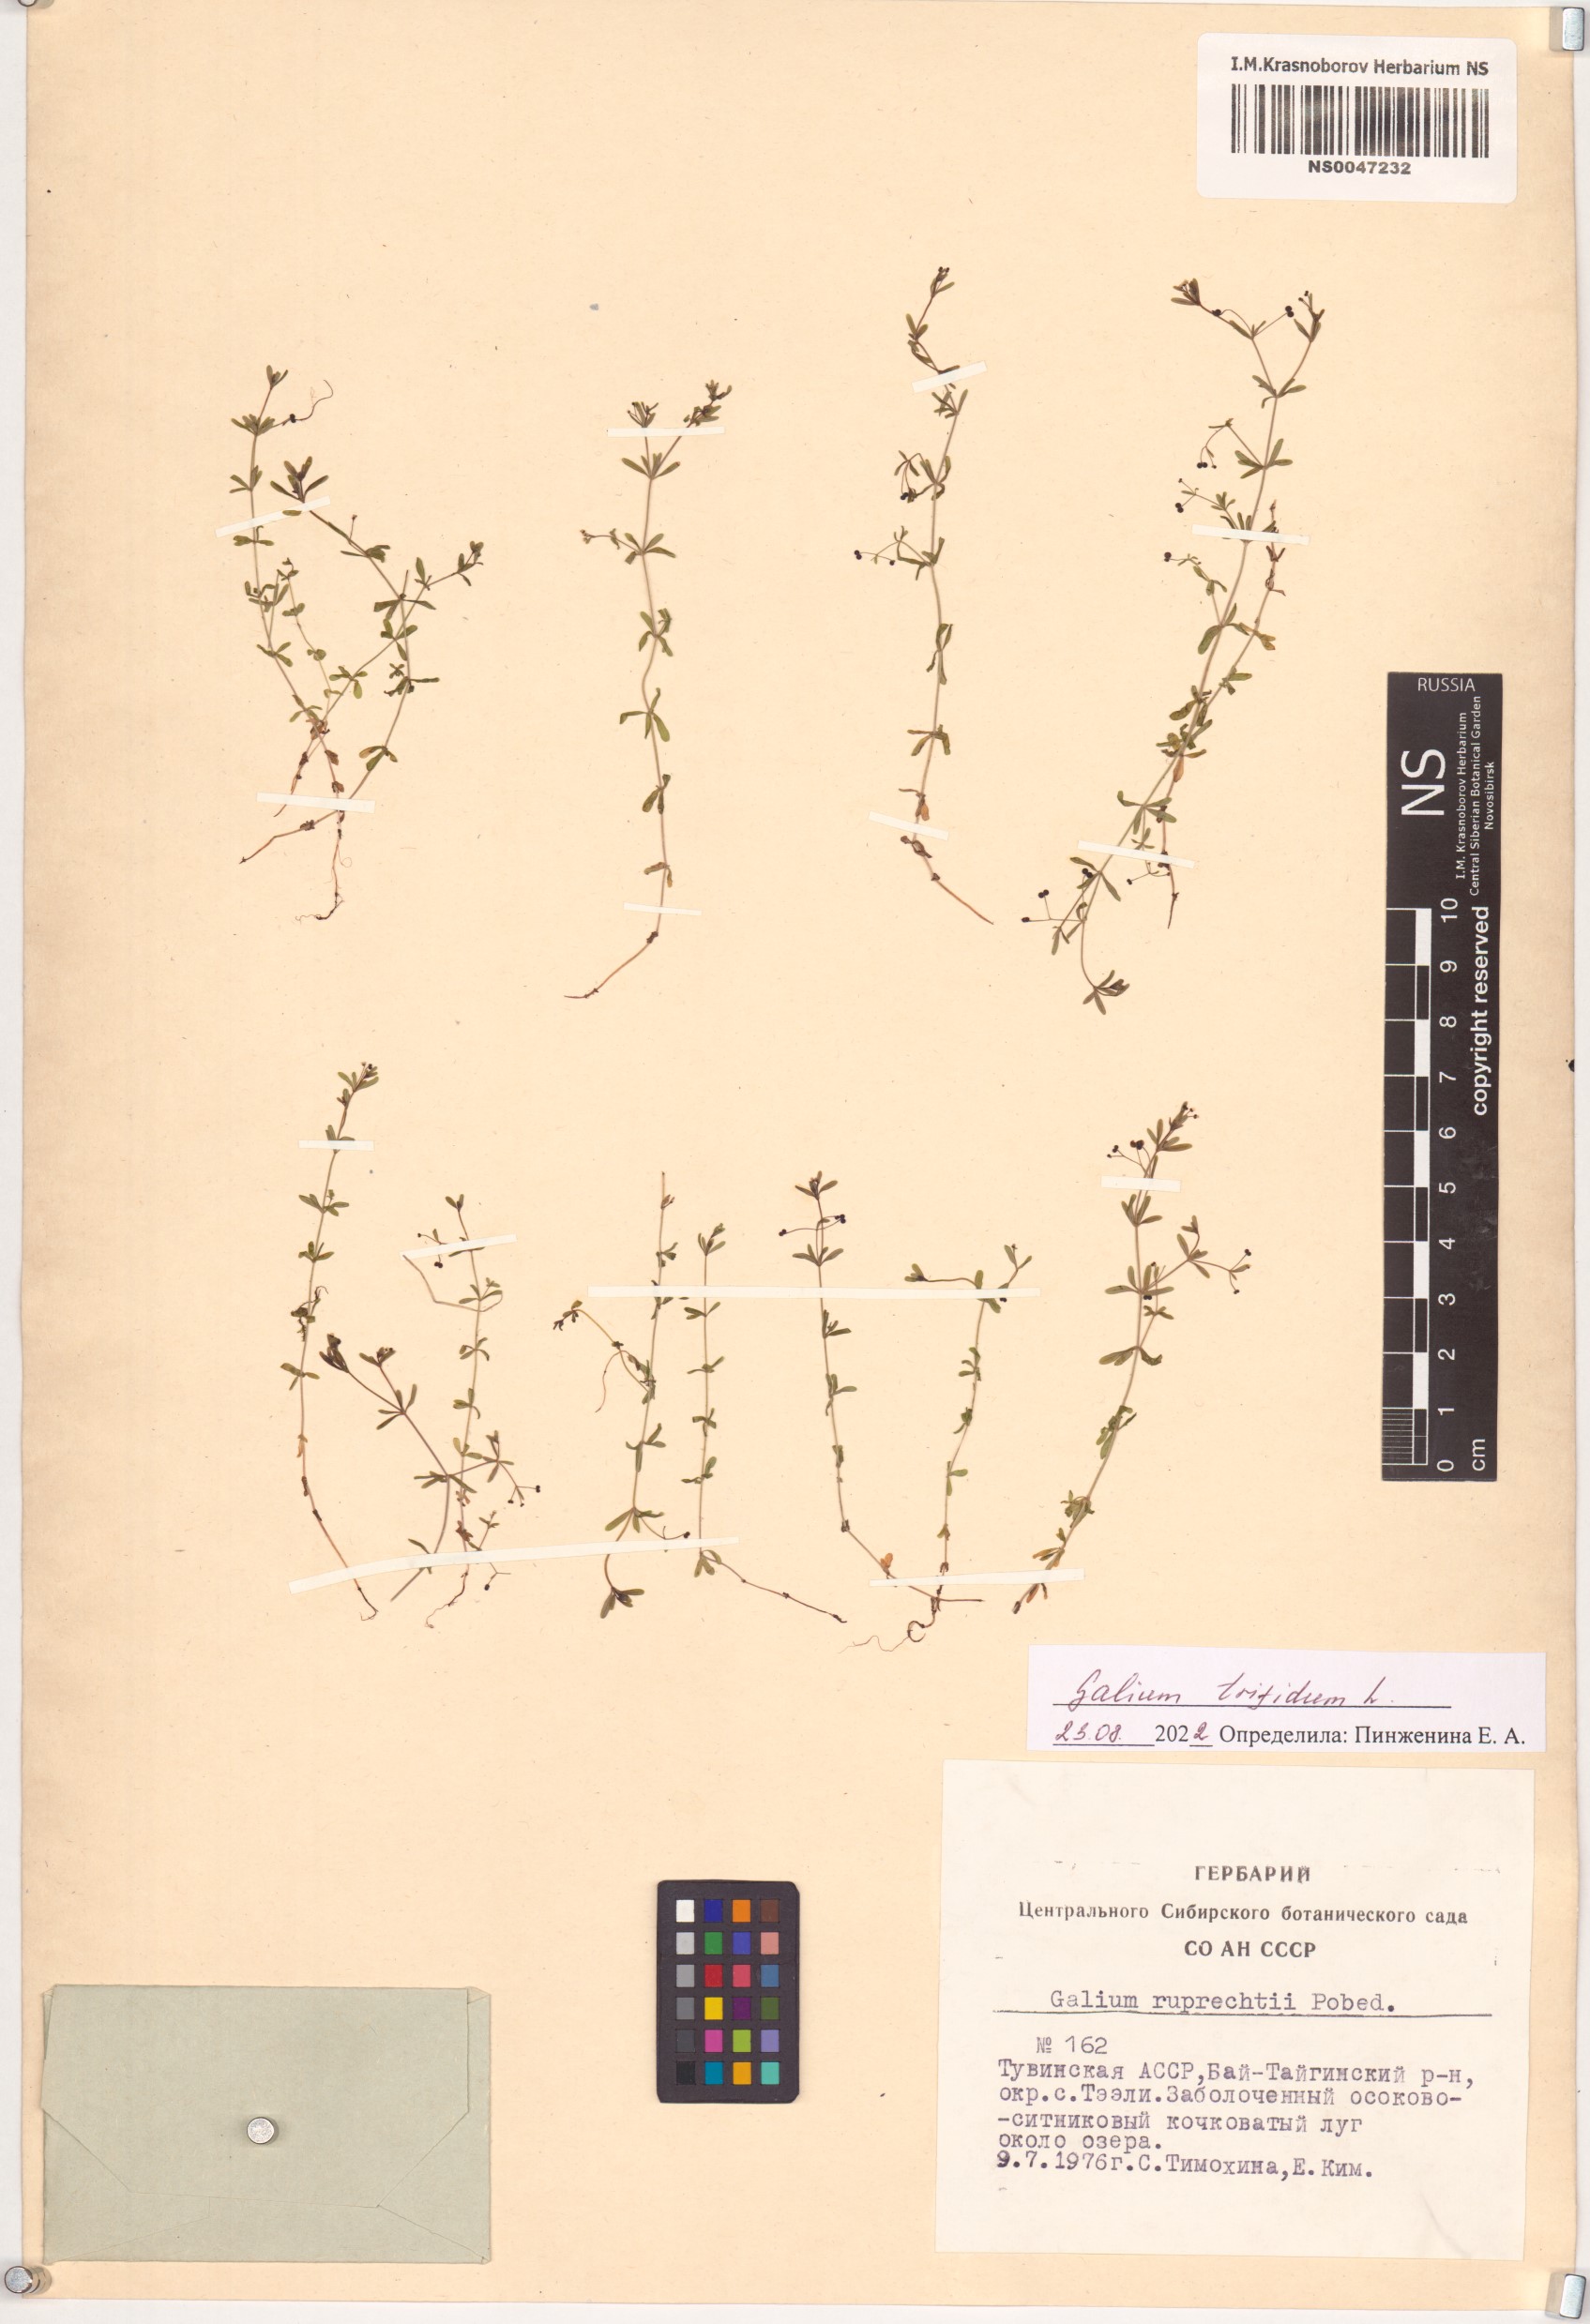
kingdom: Plantae
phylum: Tracheophyta
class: Magnoliopsida
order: Gentianales
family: Rubiaceae
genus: Galium
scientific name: Galium trifidum
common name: Small bedstraw
